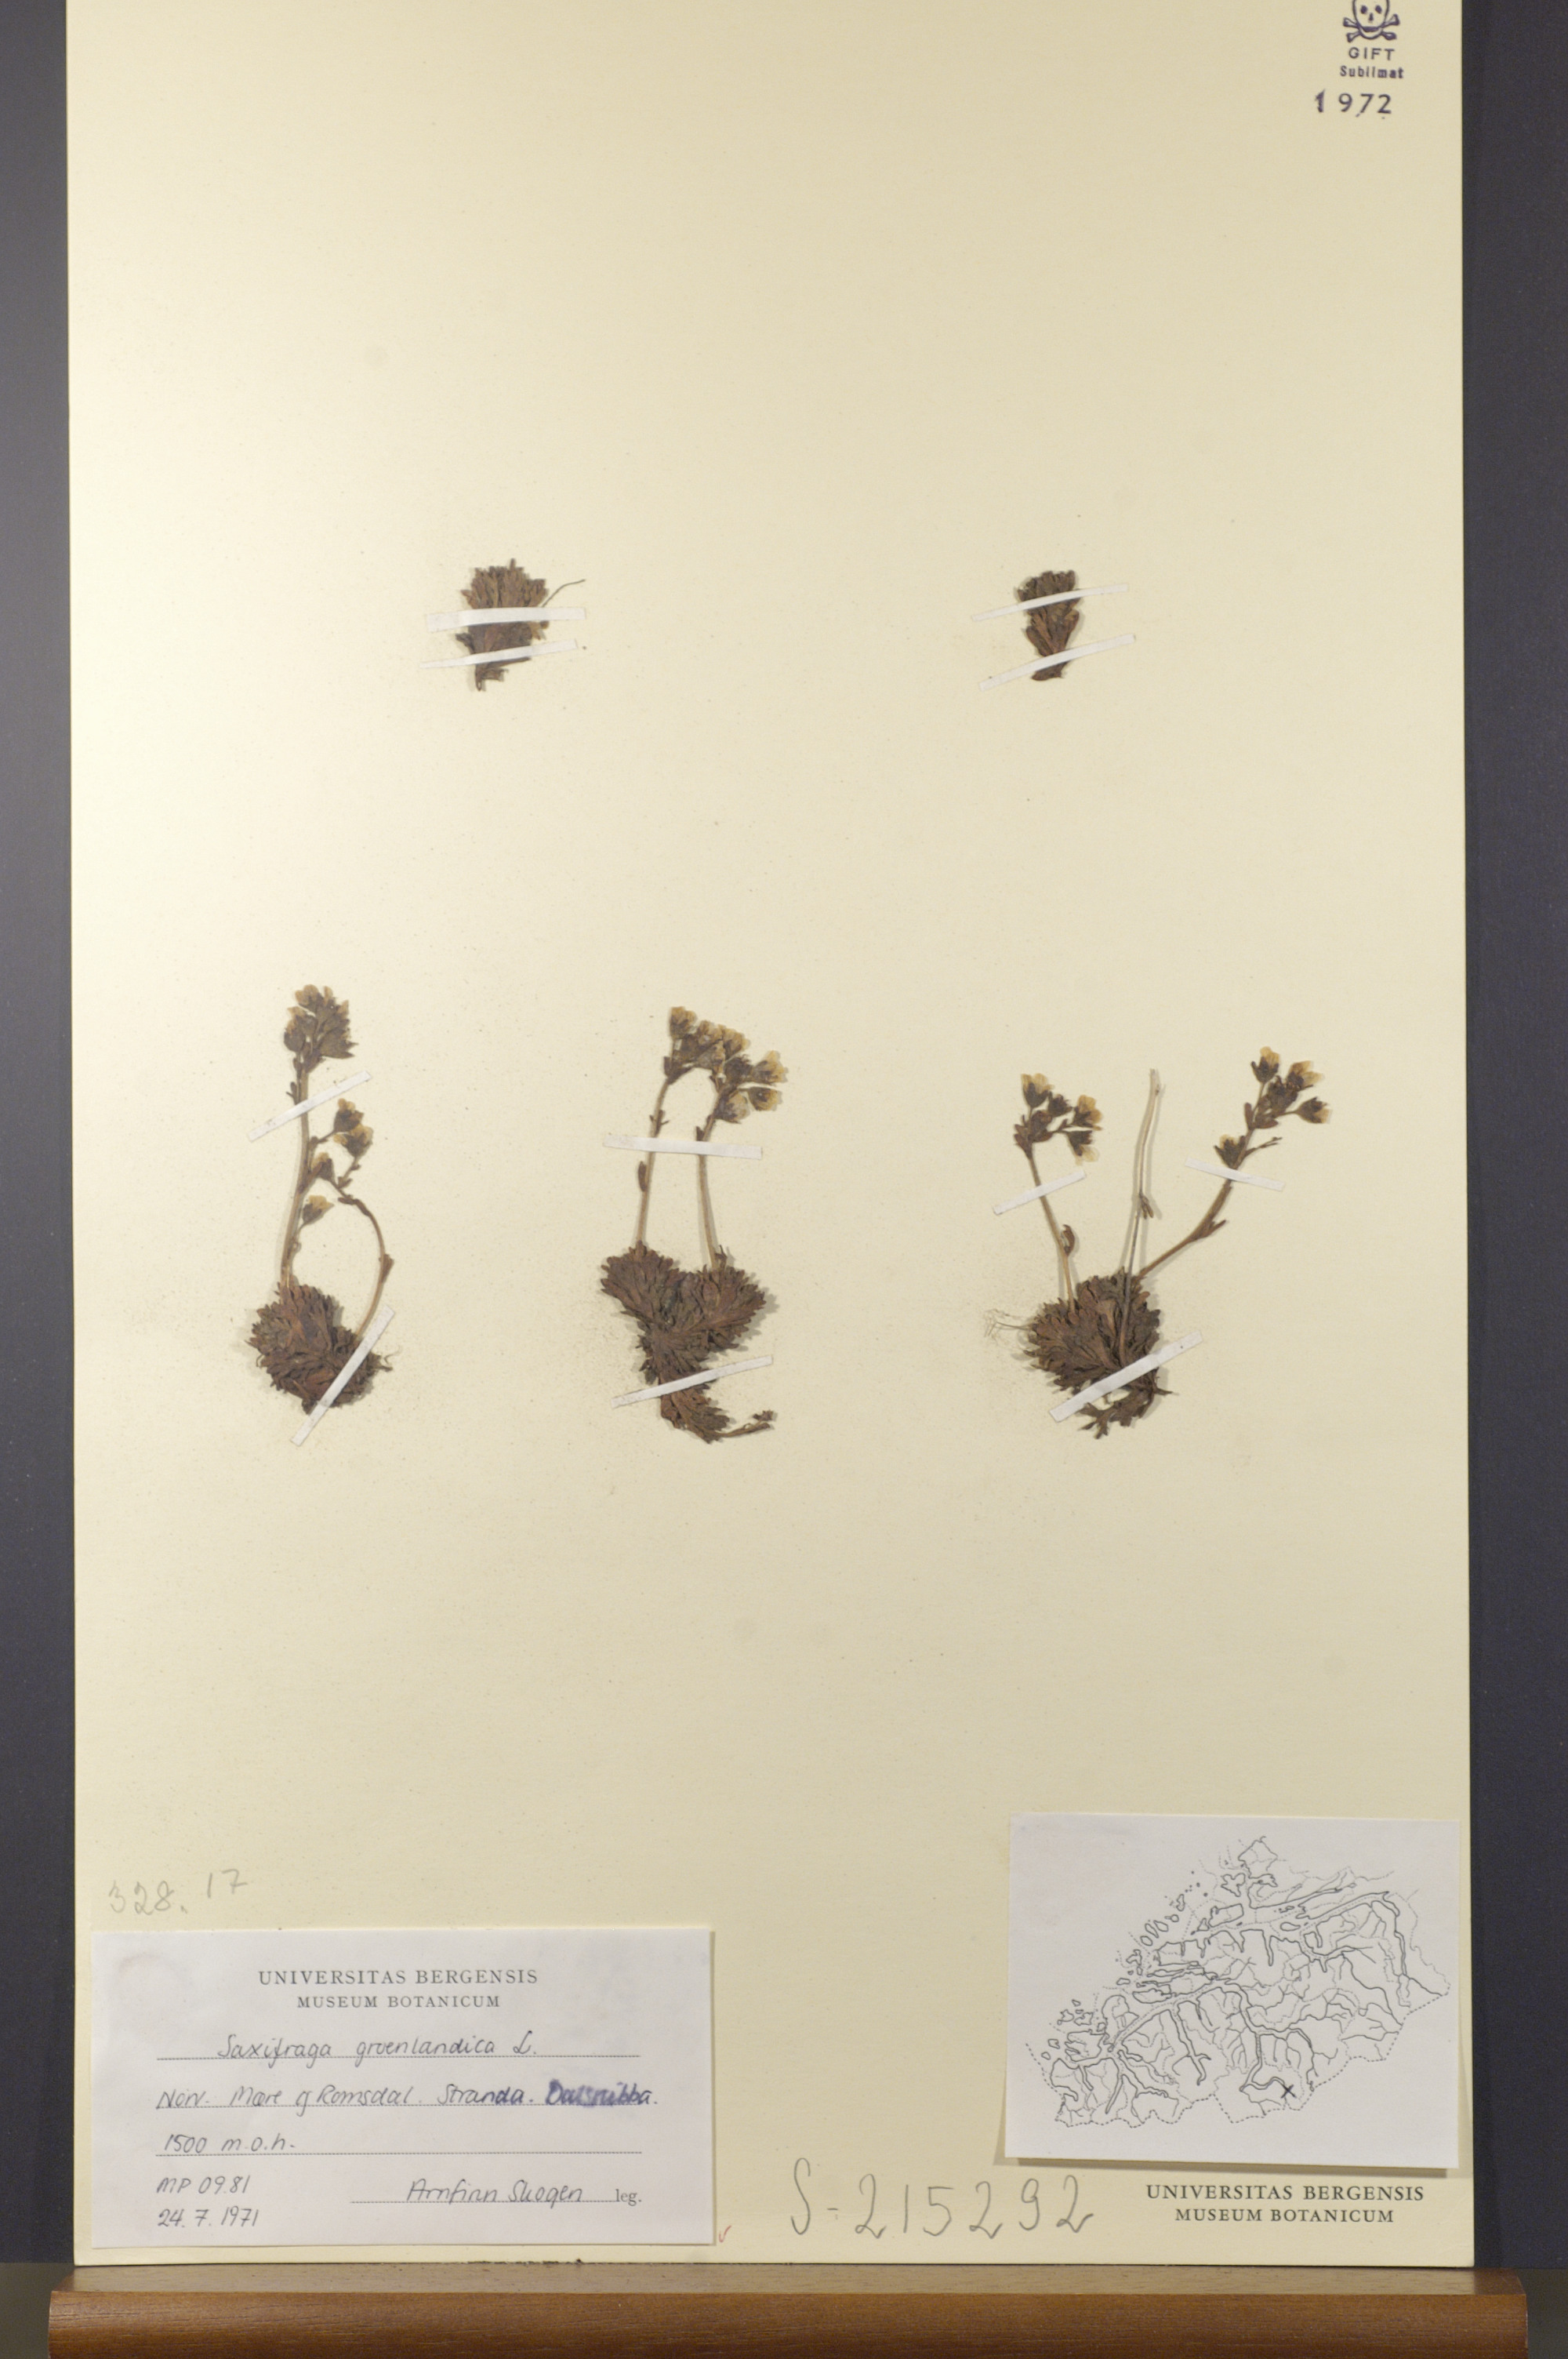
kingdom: Plantae
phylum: Tracheophyta
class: Magnoliopsida
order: Saxifragales
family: Saxifragaceae
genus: Saxifraga
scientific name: Saxifraga cespitosa
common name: Tufted saxifrage
